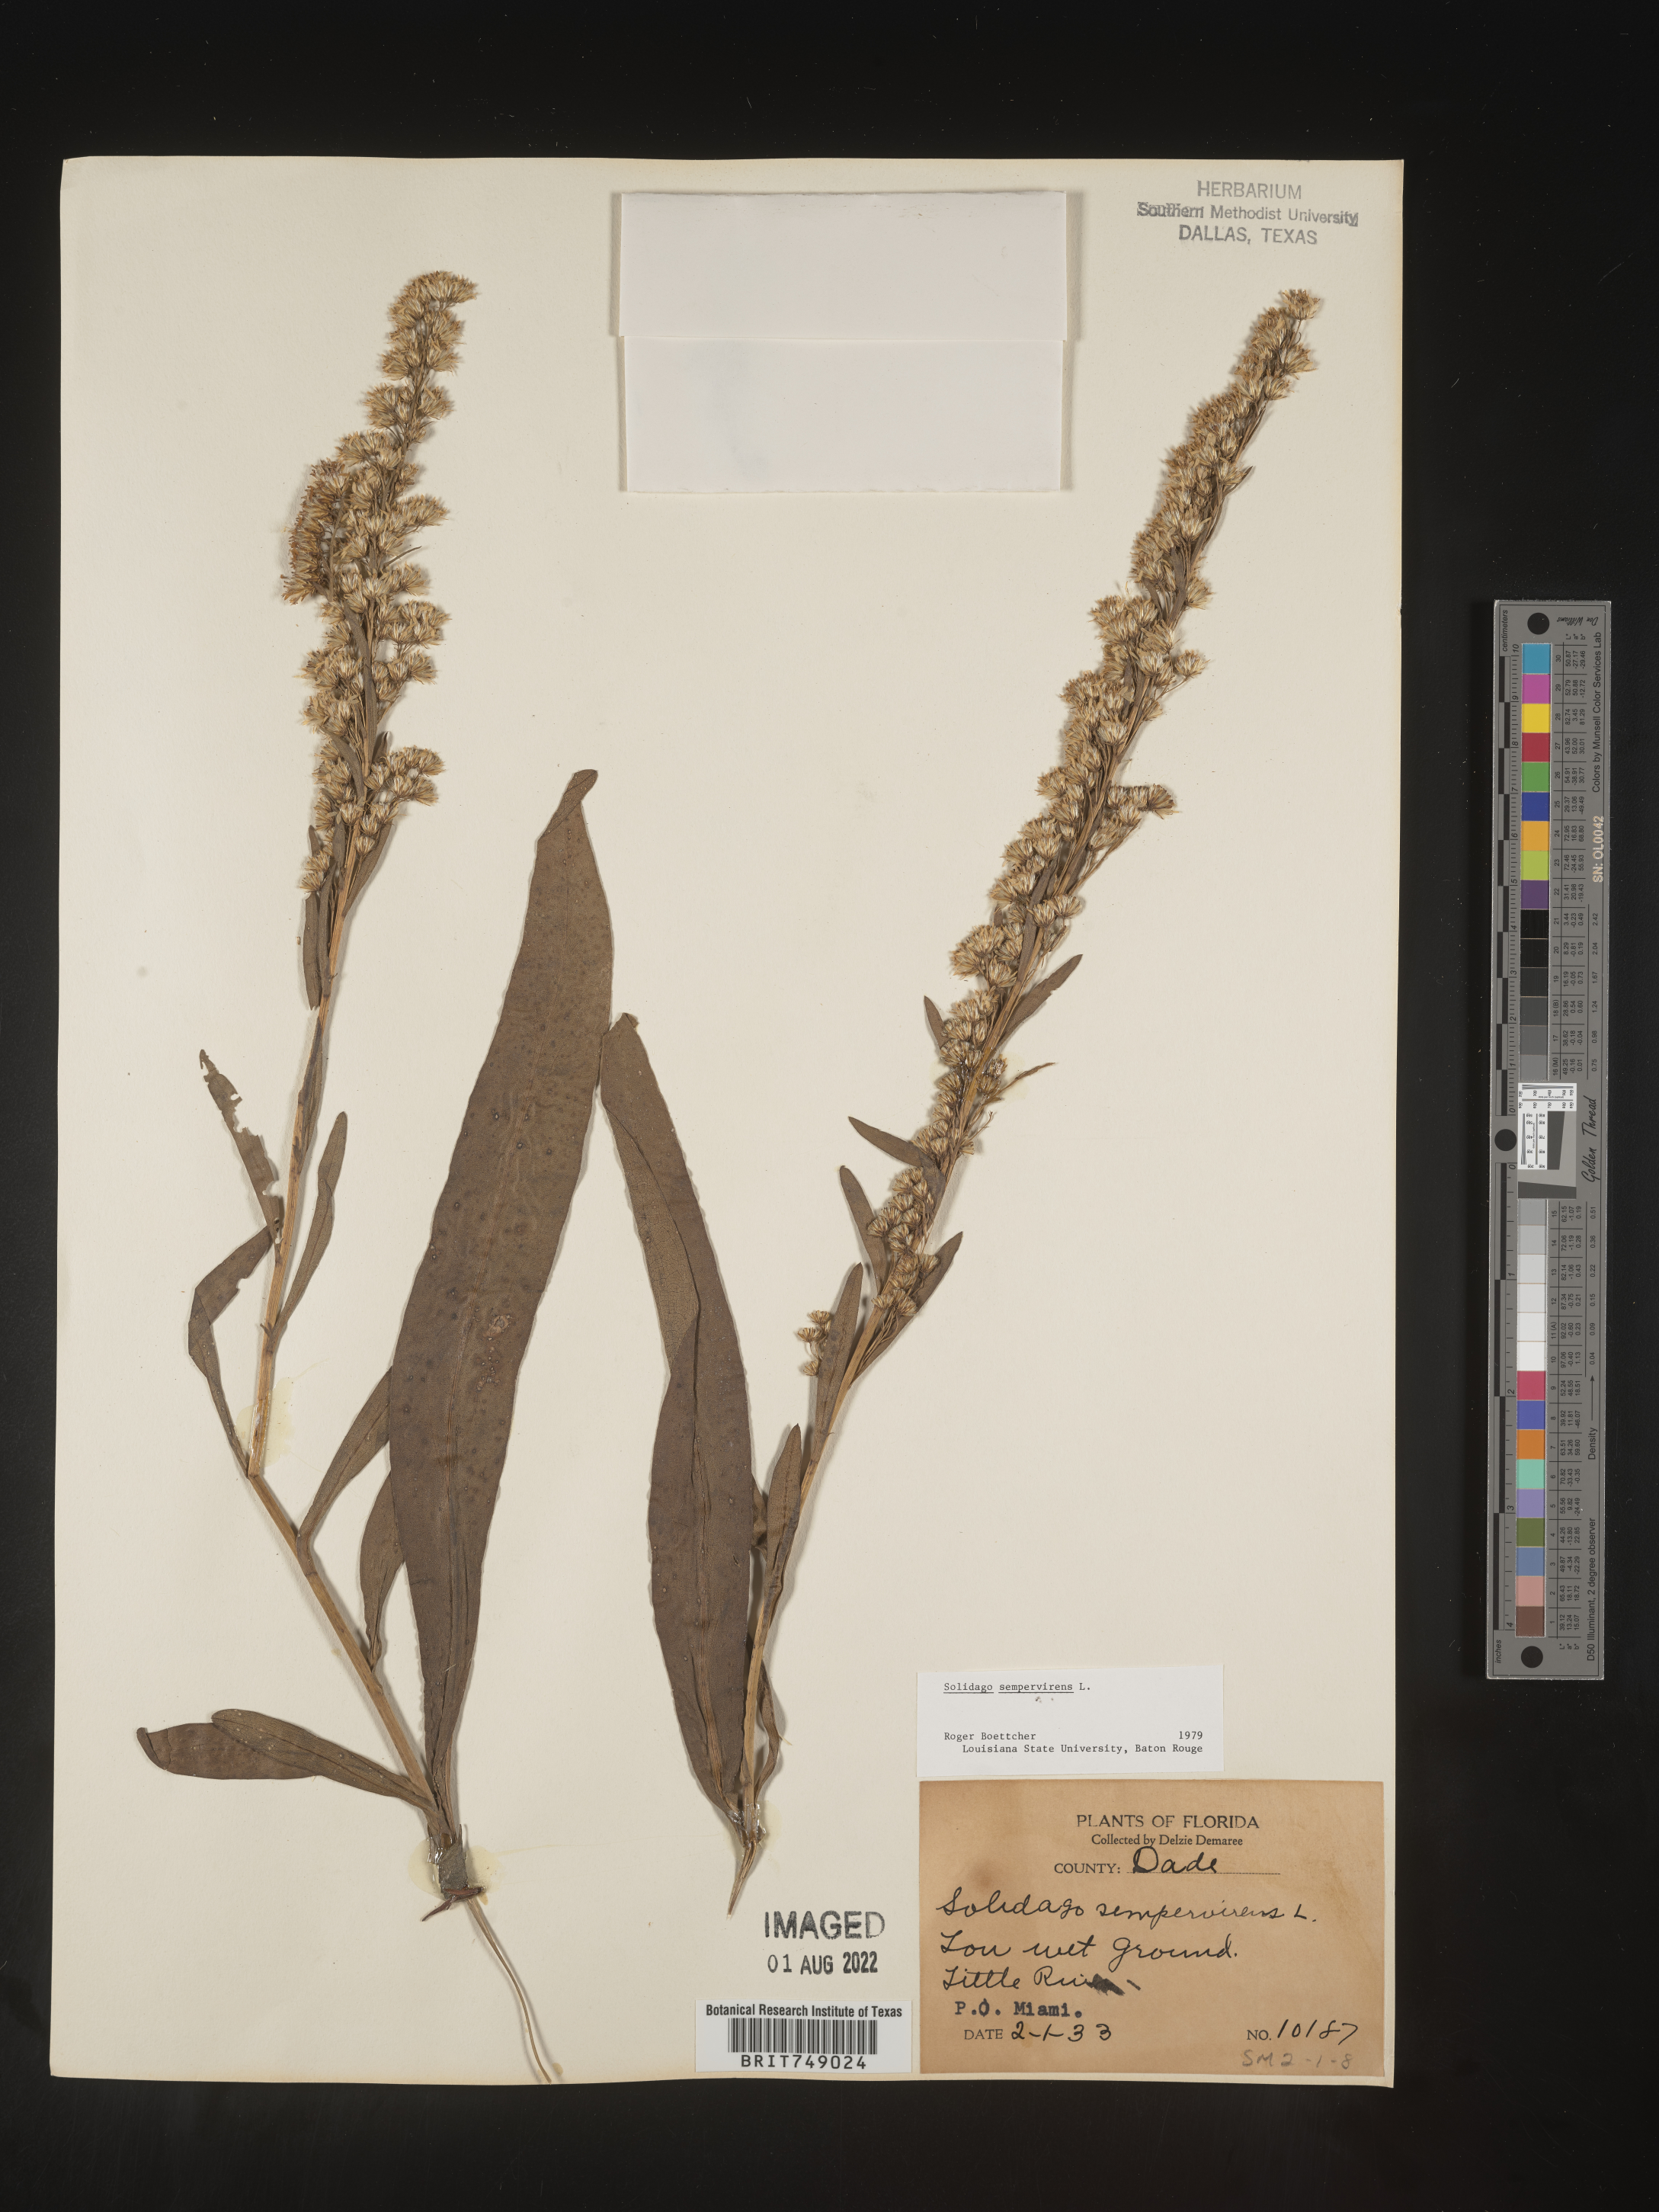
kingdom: Plantae
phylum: Tracheophyta
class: Magnoliopsida
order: Asterales
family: Asteraceae
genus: Solidago
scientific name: Solidago sempervirens
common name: Salt-marsh goldenrod
